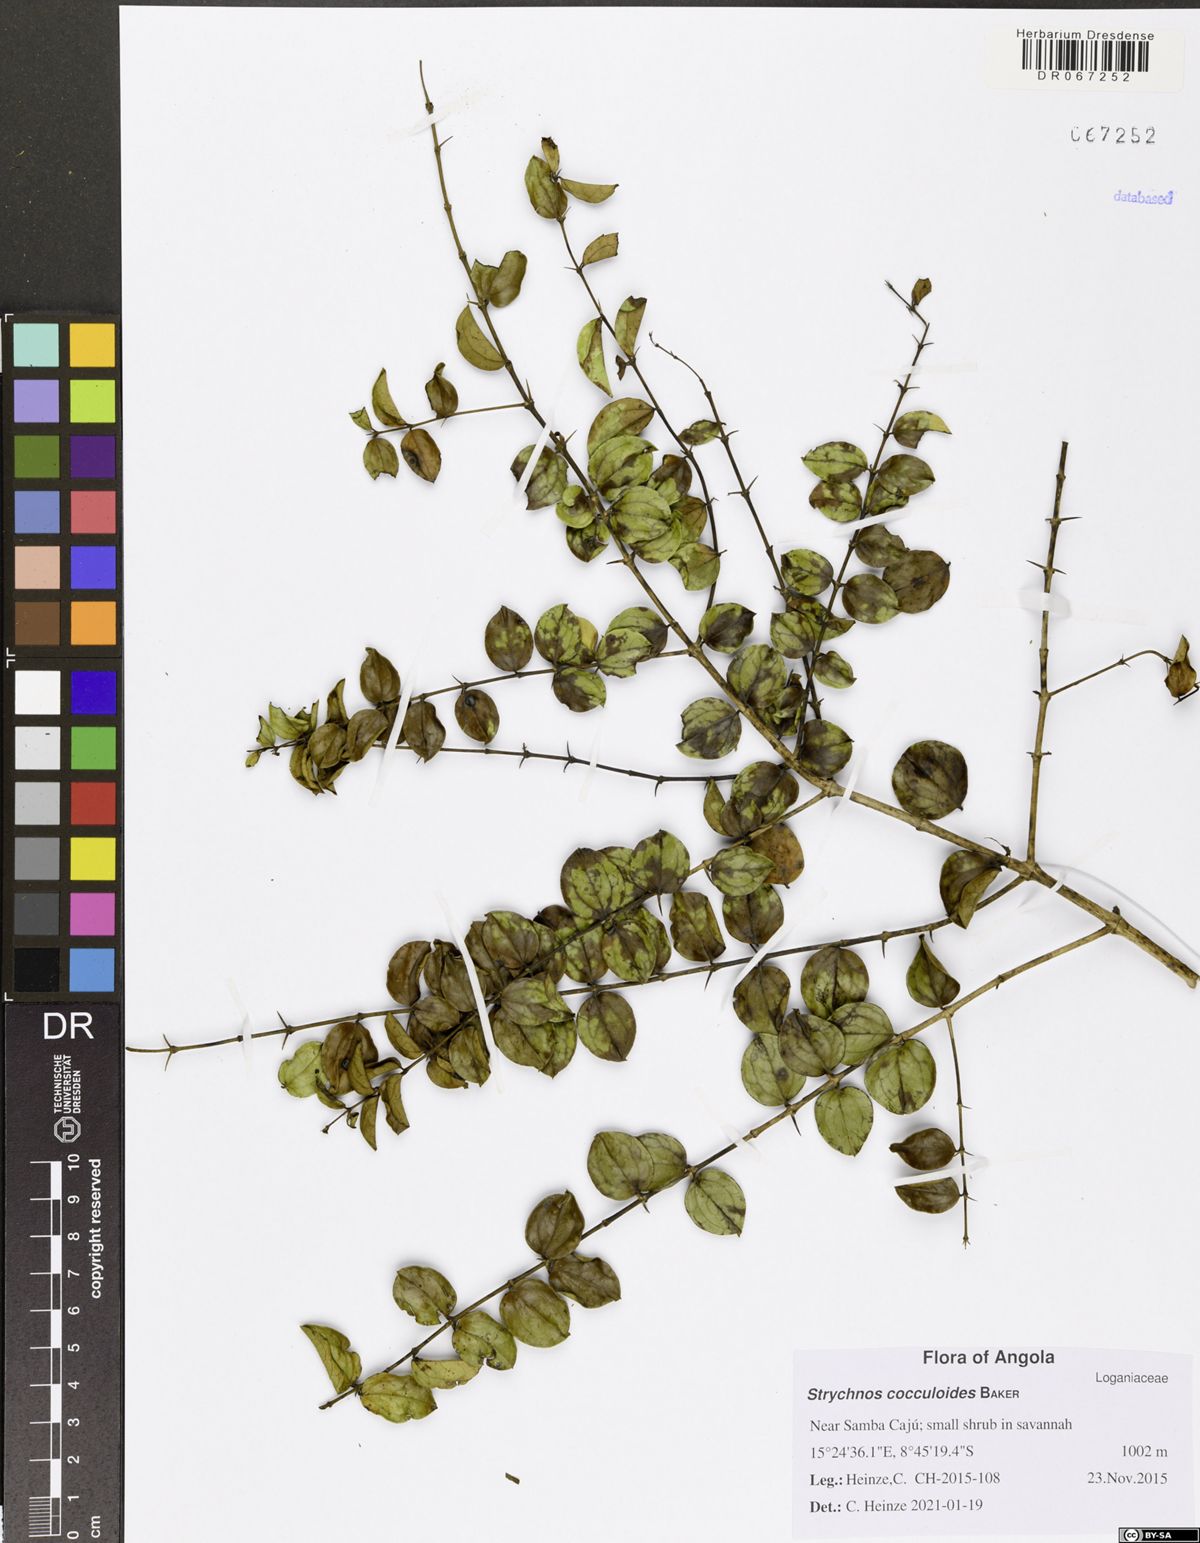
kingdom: Plantae
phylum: Tracheophyta
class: Magnoliopsida
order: Gentianales
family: Loganiaceae
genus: Strychnos
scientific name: Strychnos cocculoides
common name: Corky-bark monkey-orange
